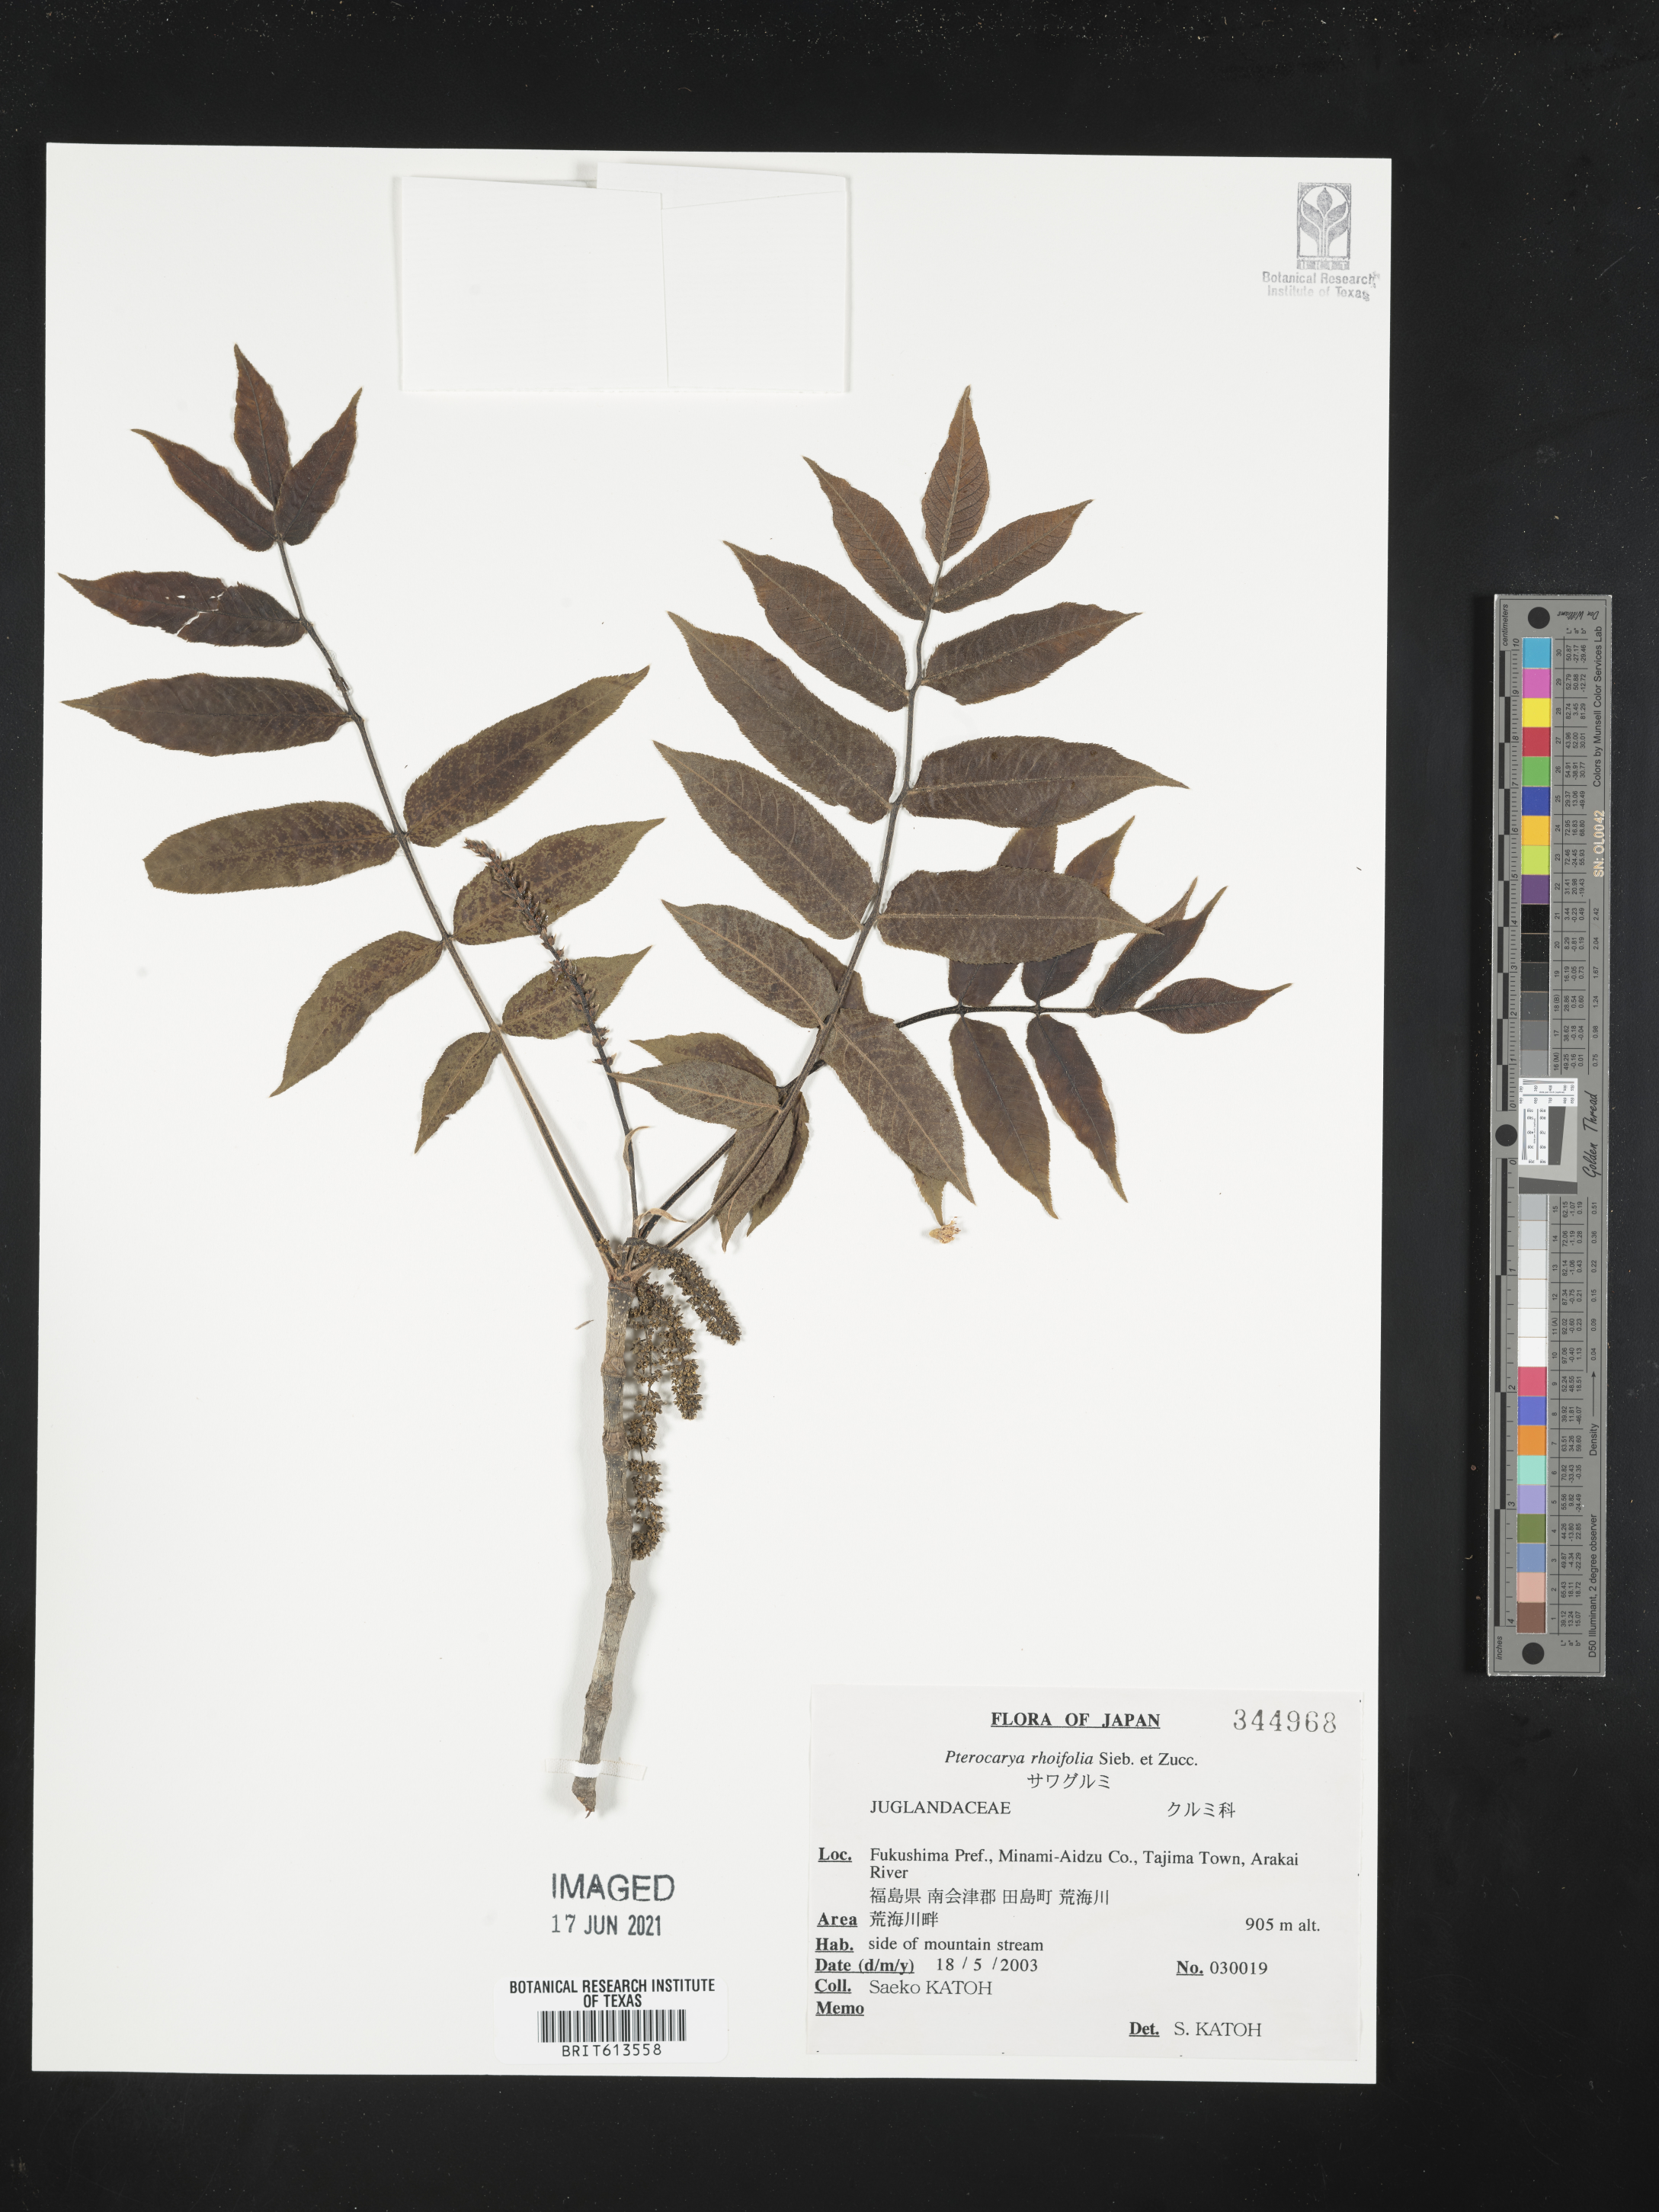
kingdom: Plantae
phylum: Tracheophyta
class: Magnoliopsida
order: Fagales
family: Juglandaceae
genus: Pterocarya
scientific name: Pterocarya rhoifolia
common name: Japanese wingnut
